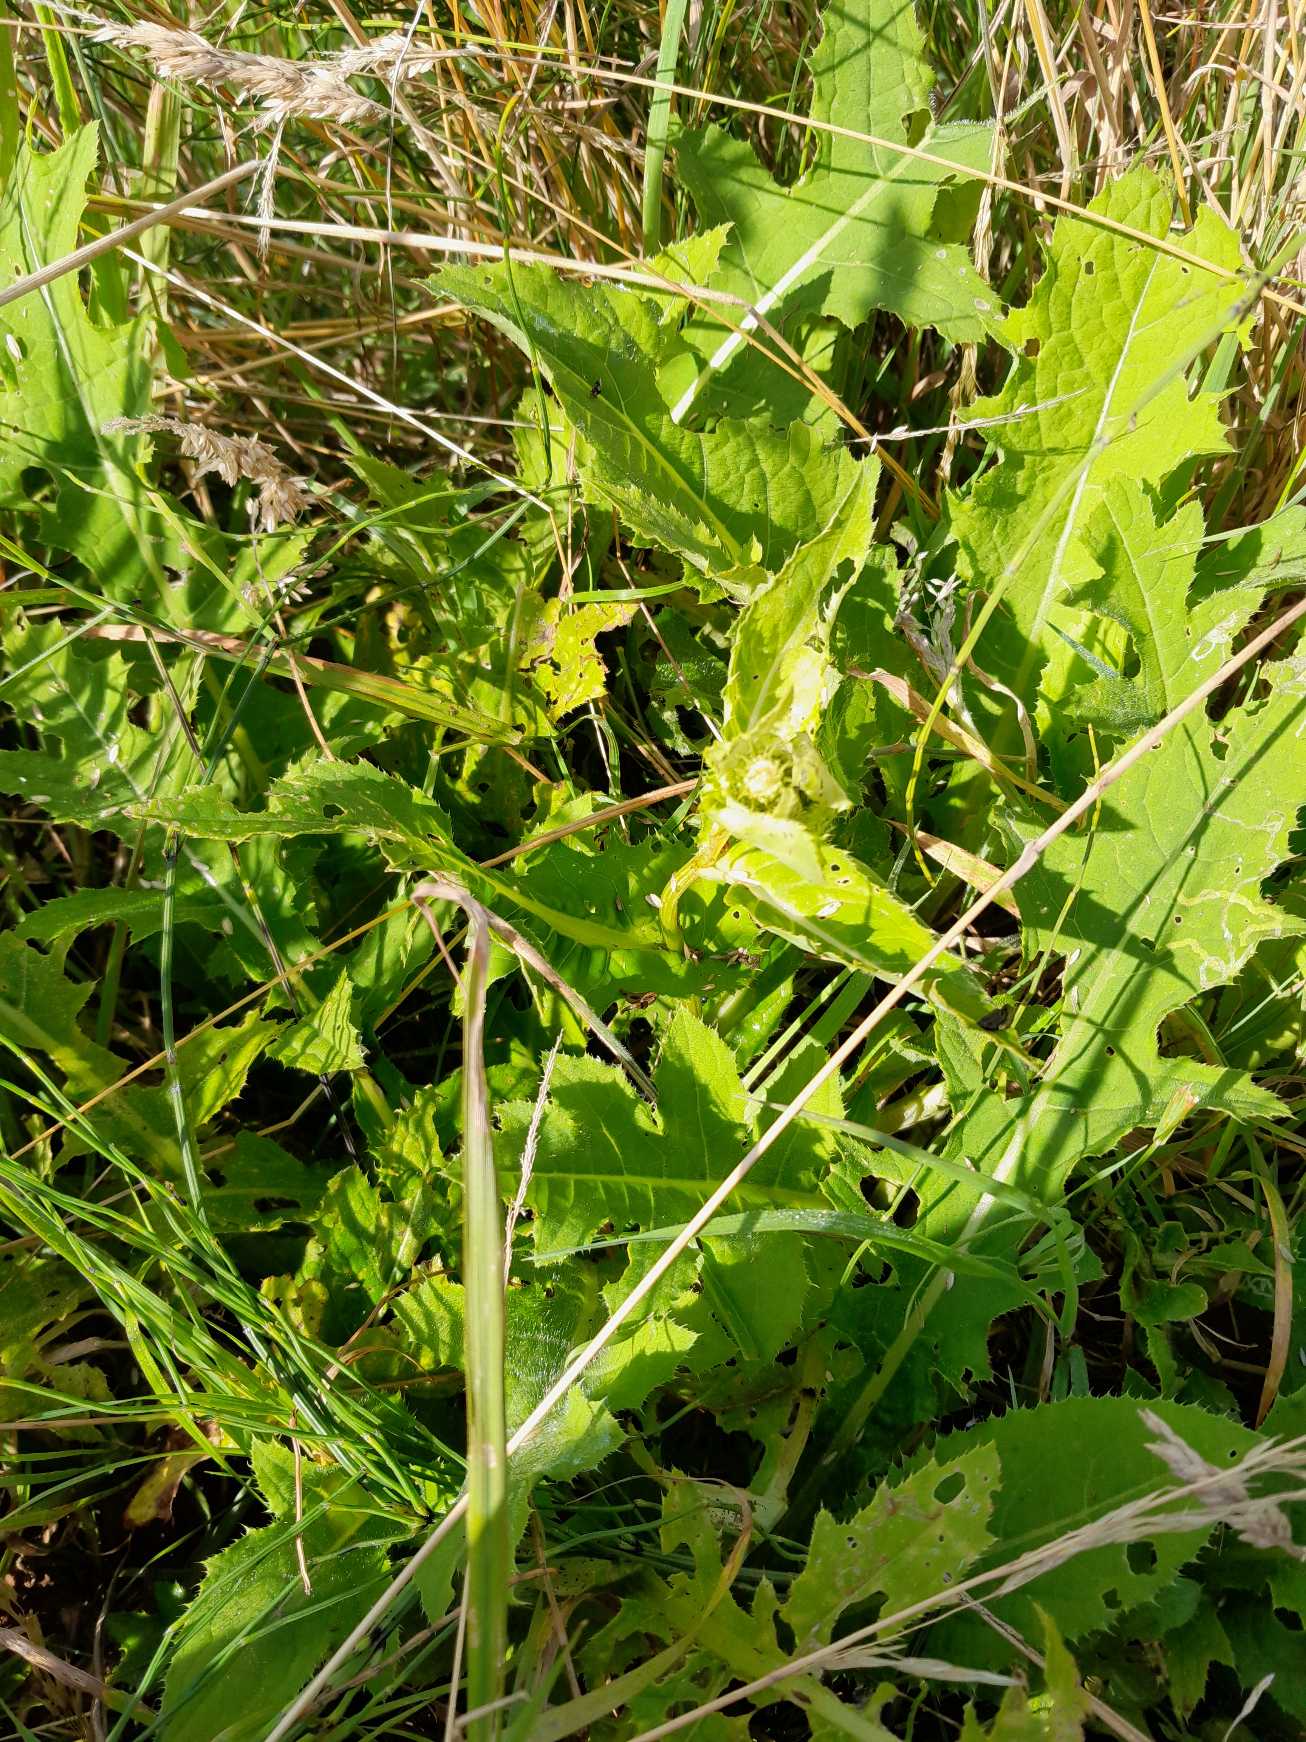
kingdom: Plantae
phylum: Tracheophyta
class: Magnoliopsida
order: Asterales
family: Asteraceae
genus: Cirsium
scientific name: Cirsium oleraceum
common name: Kål-tidsel
